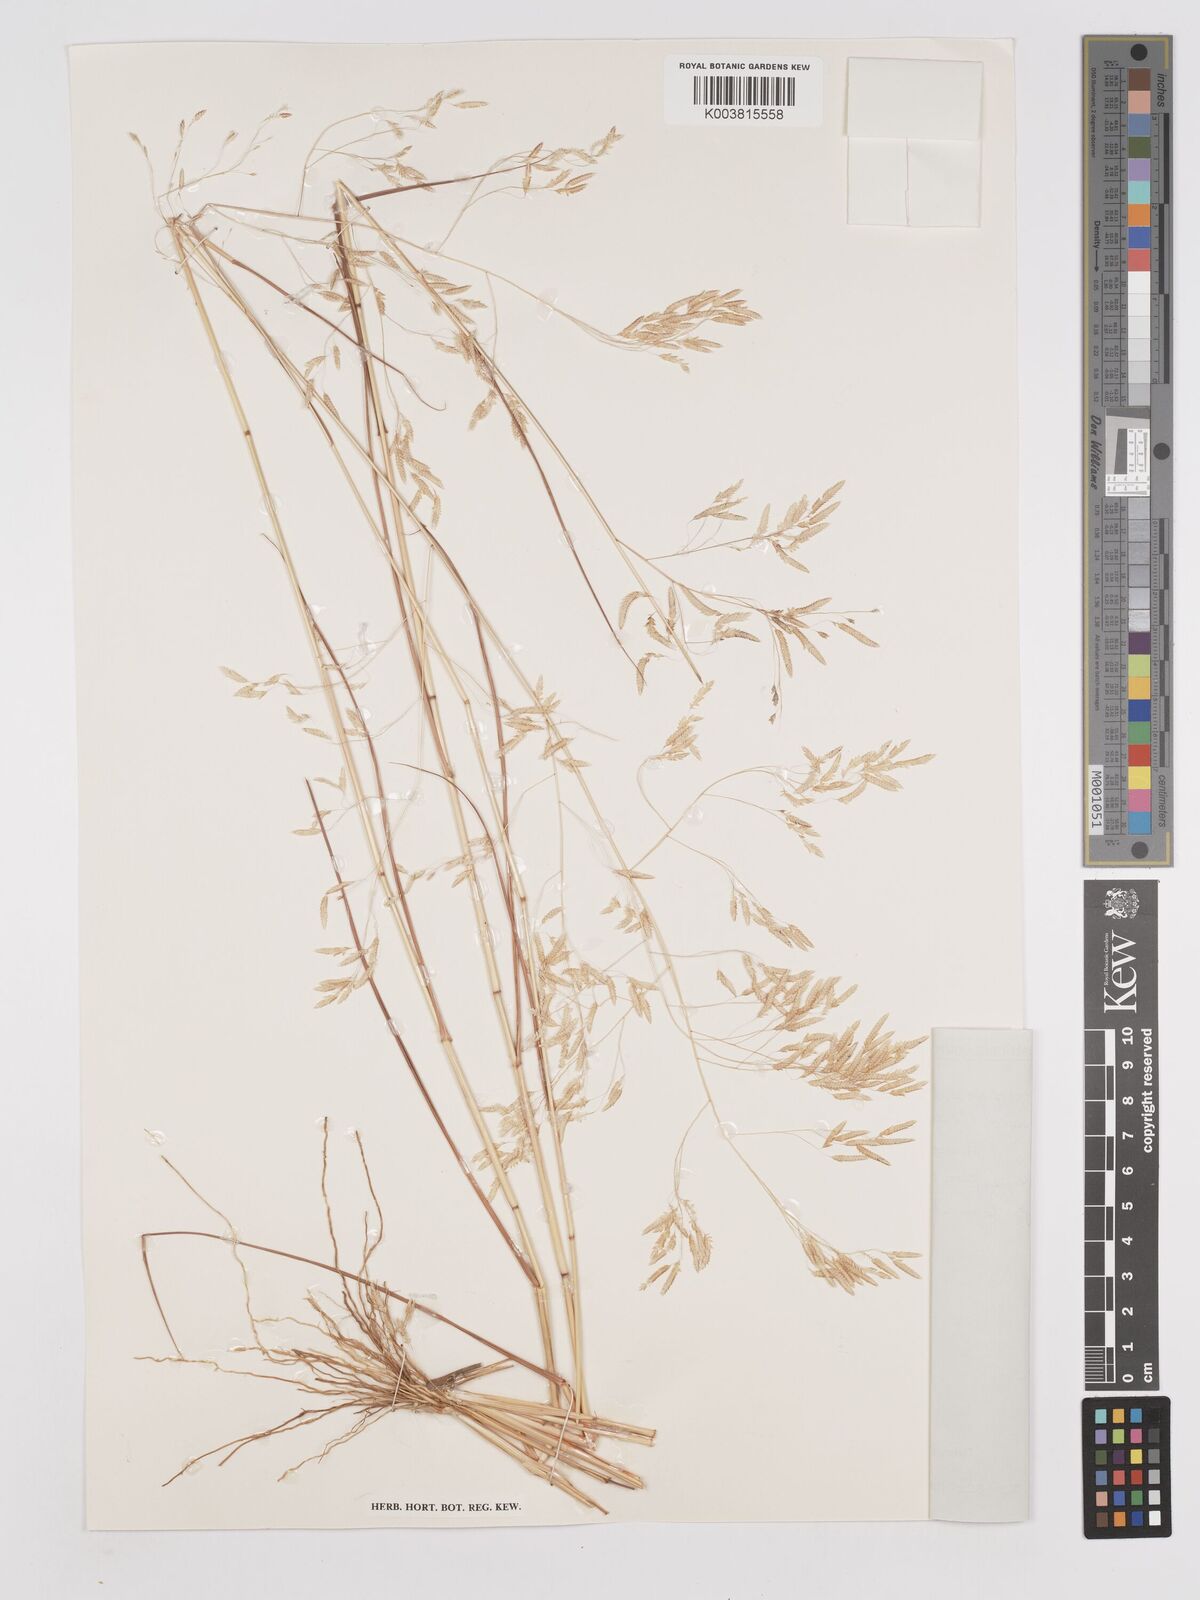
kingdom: Plantae
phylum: Tracheophyta
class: Liliopsida
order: Poales
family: Poaceae
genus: Eragrostis
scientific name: Eragrostis tremula
